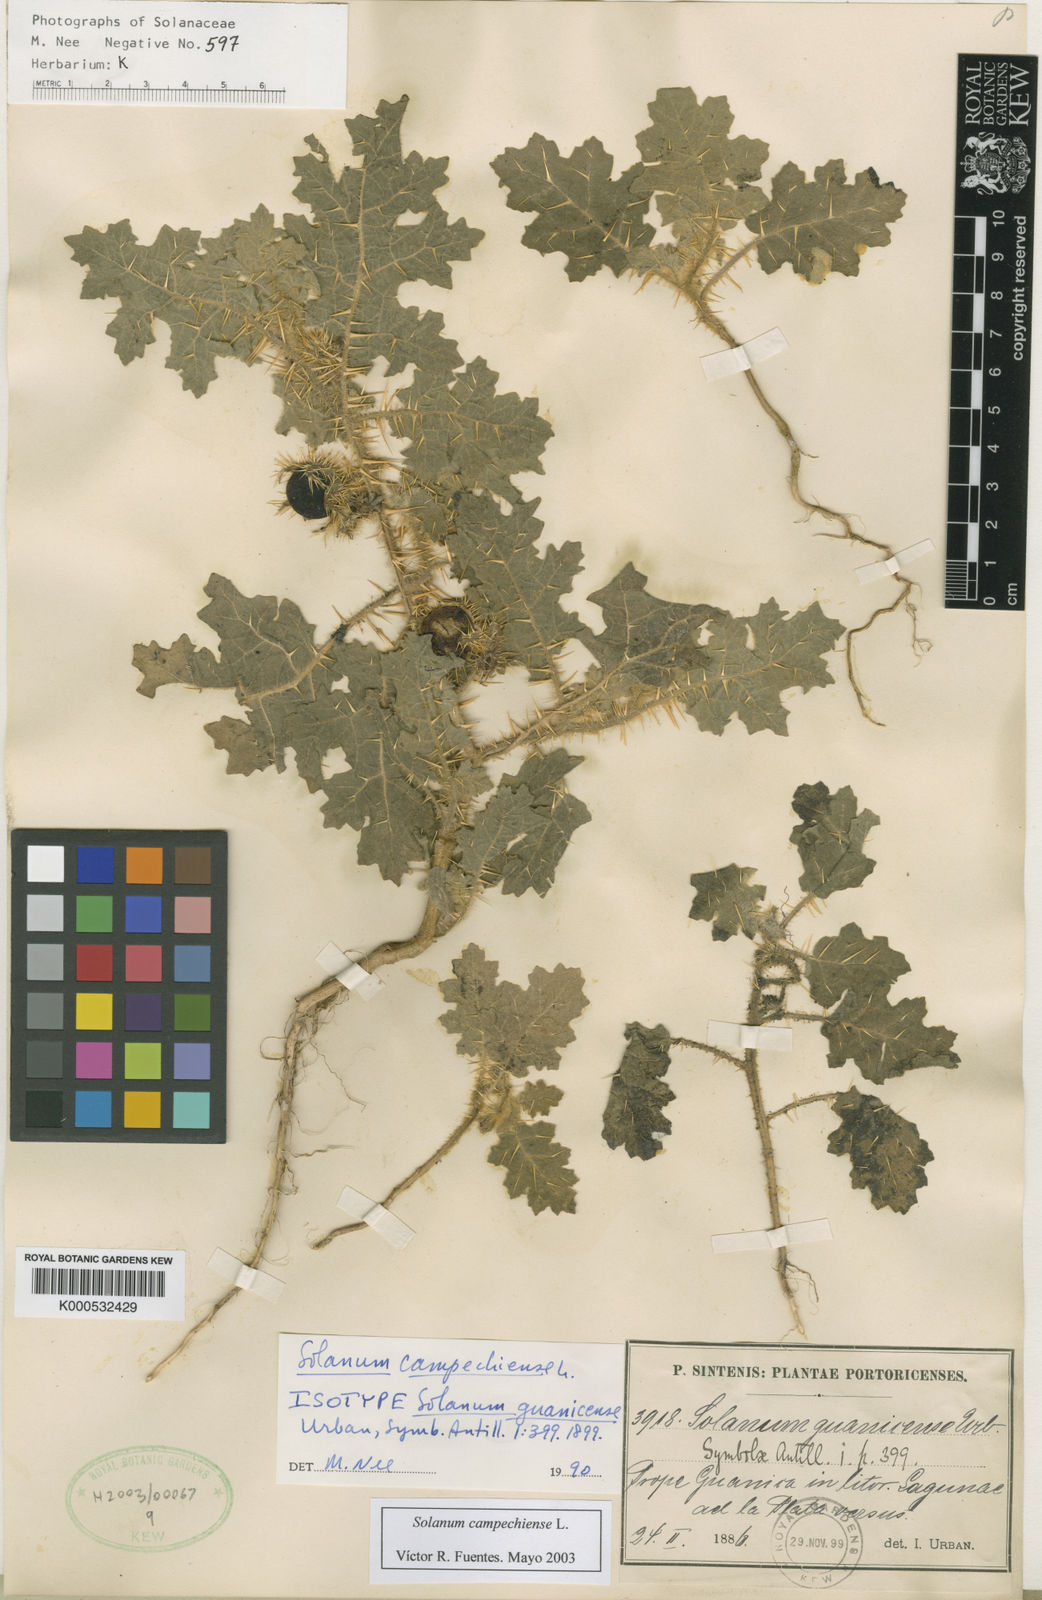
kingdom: Plantae
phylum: Tracheophyta
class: Magnoliopsida
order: Solanales
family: Solanaceae
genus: Solanum
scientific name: Solanum campechiense
